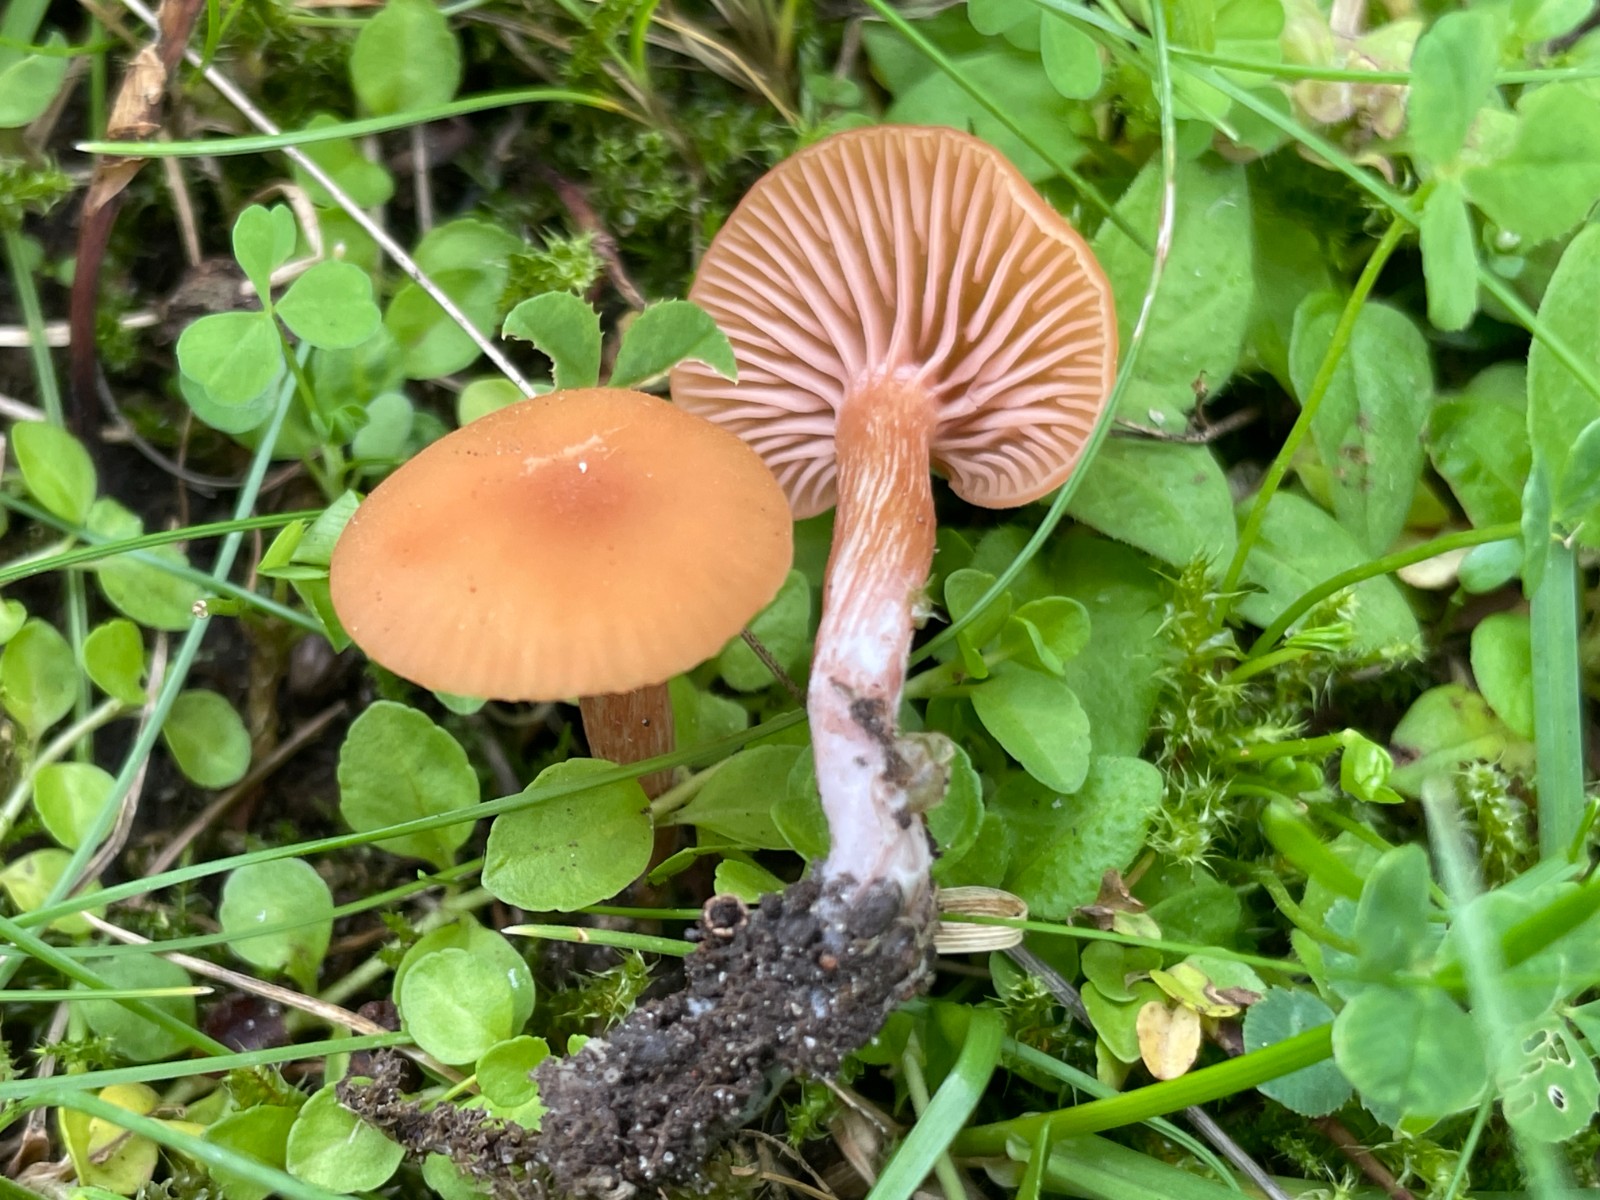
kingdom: Fungi
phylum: Basidiomycota
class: Agaricomycetes
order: Agaricales
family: Hydnangiaceae
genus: Laccaria
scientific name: Laccaria laccata
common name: rød ametysthat
